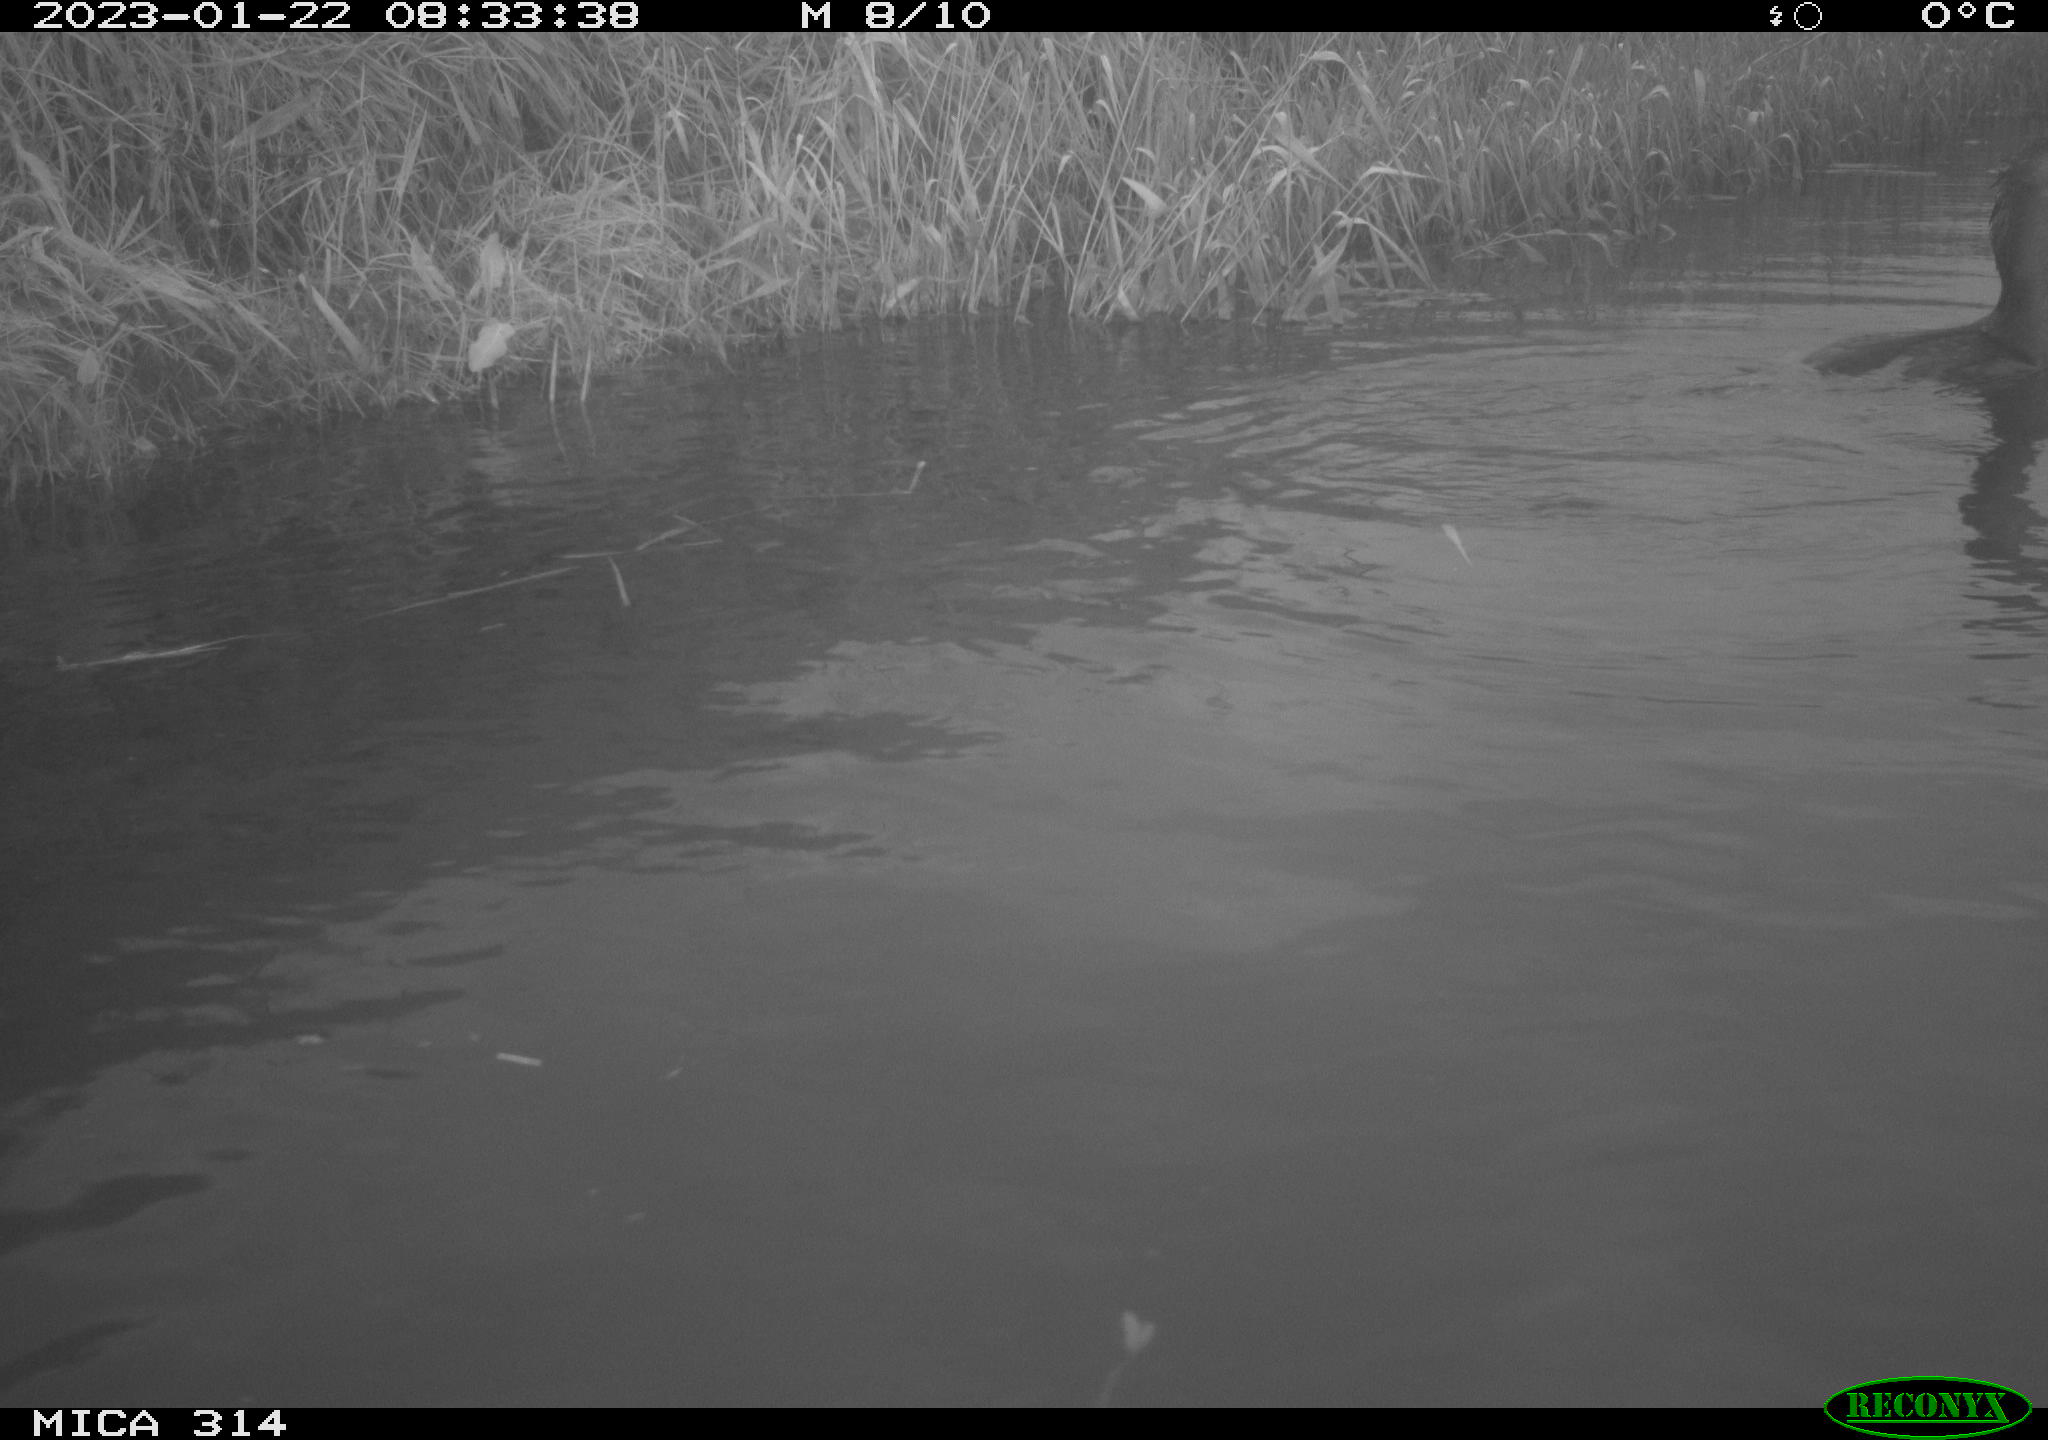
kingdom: Animalia
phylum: Chordata
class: Aves
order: Suliformes
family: Phalacrocoracidae
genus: Phalacrocorax
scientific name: Phalacrocorax carbo
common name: Great cormorant
